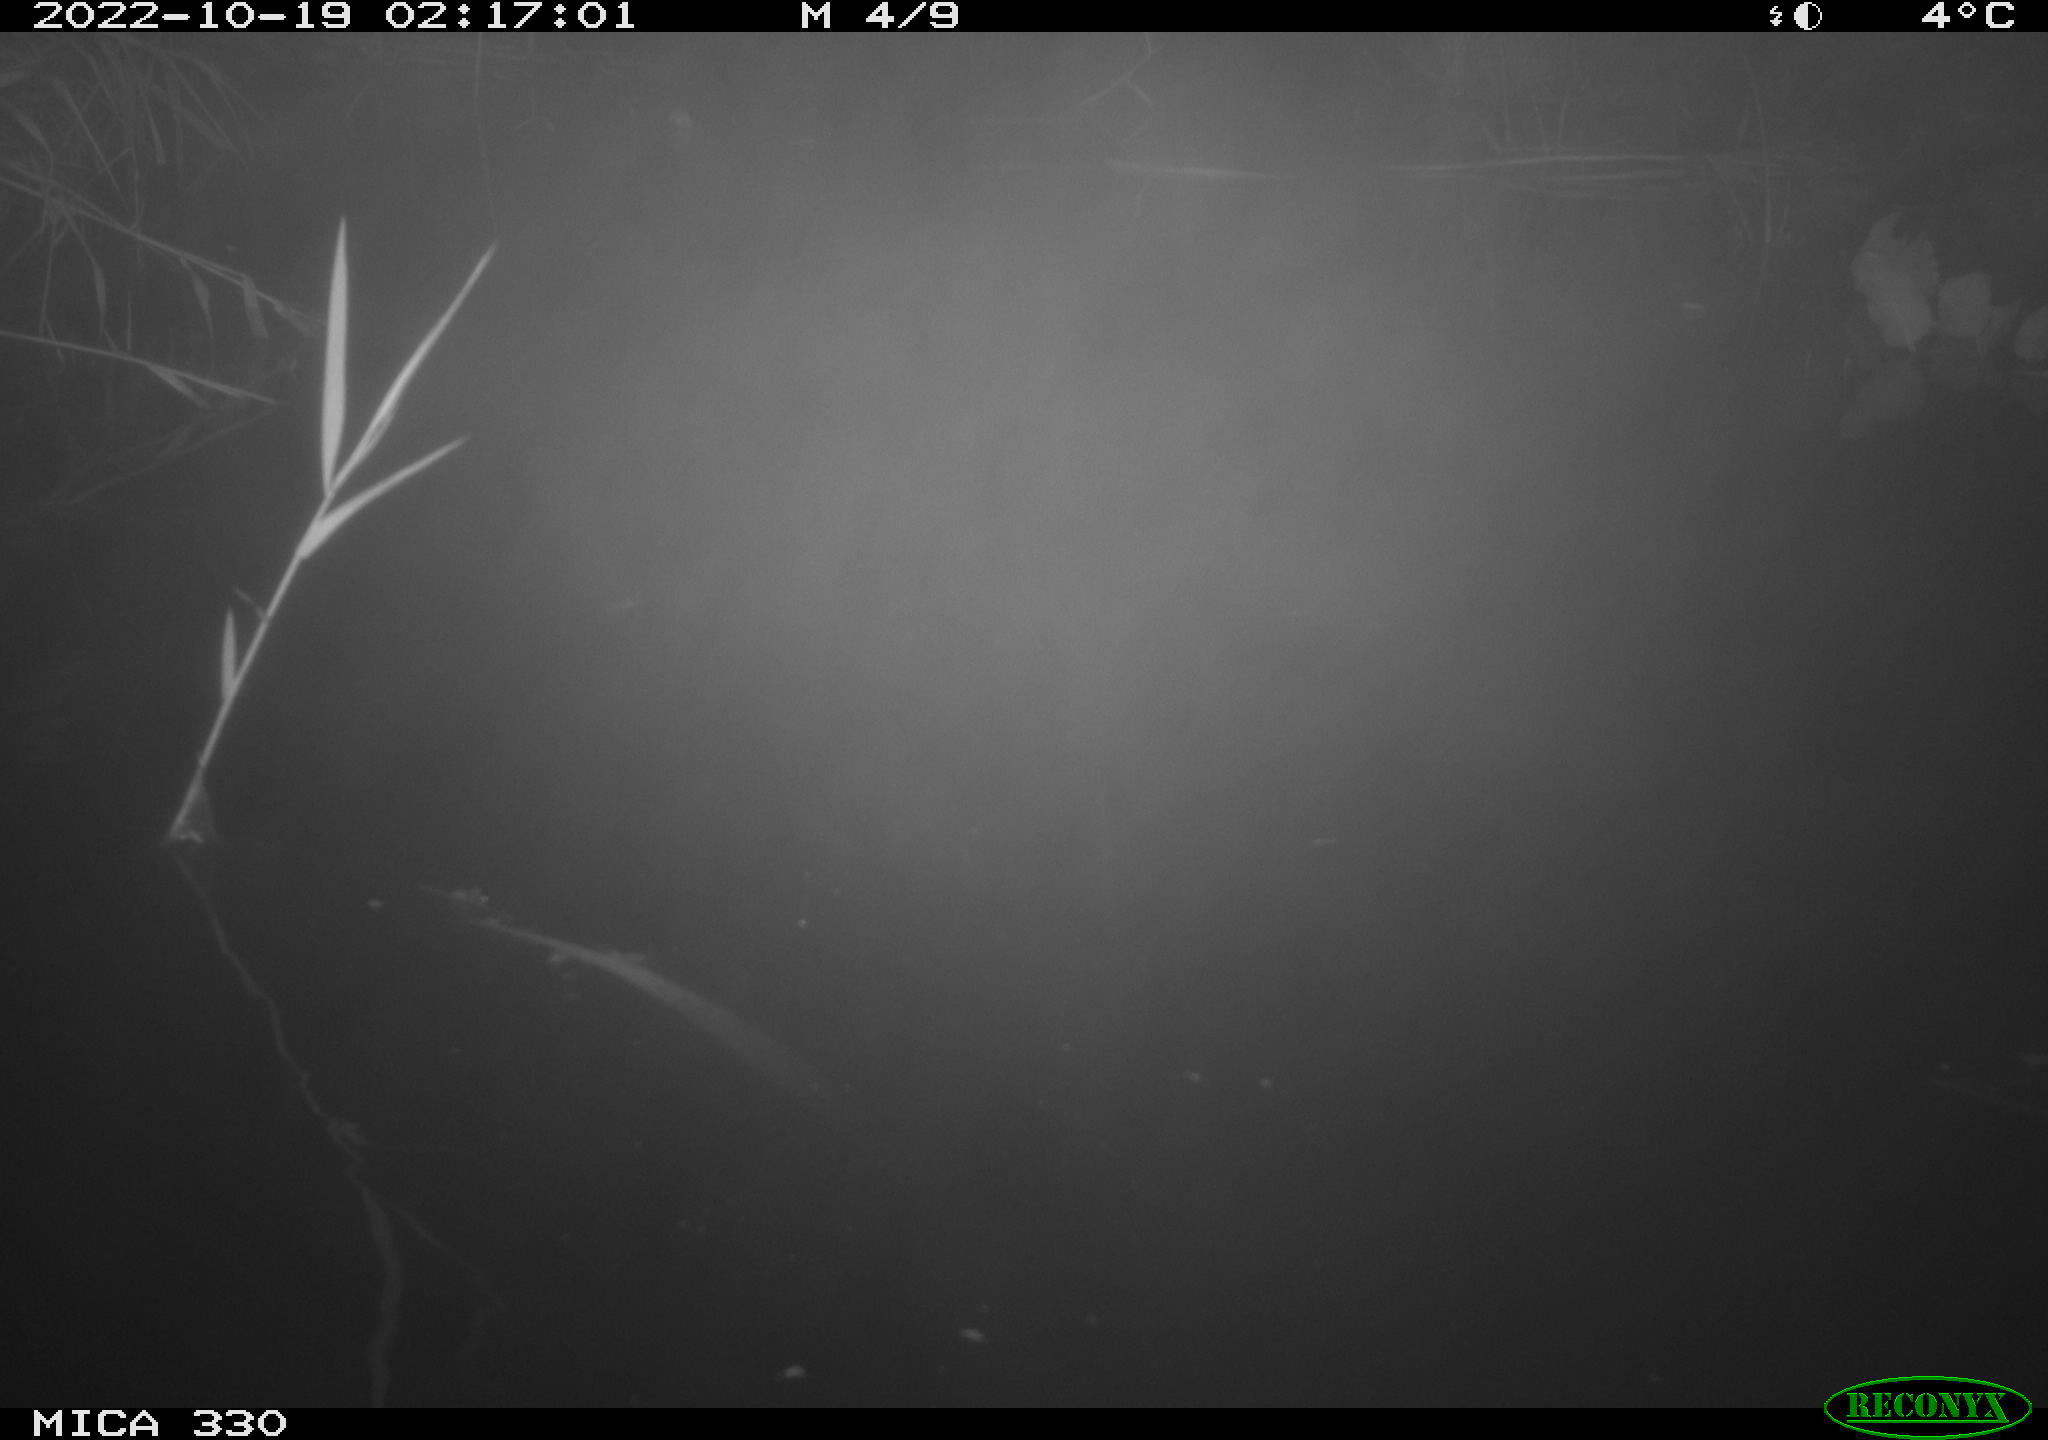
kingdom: Animalia
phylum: Chordata
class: Mammalia
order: Rodentia
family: Muridae
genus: Rattus
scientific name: Rattus norvegicus
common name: Brown rat
